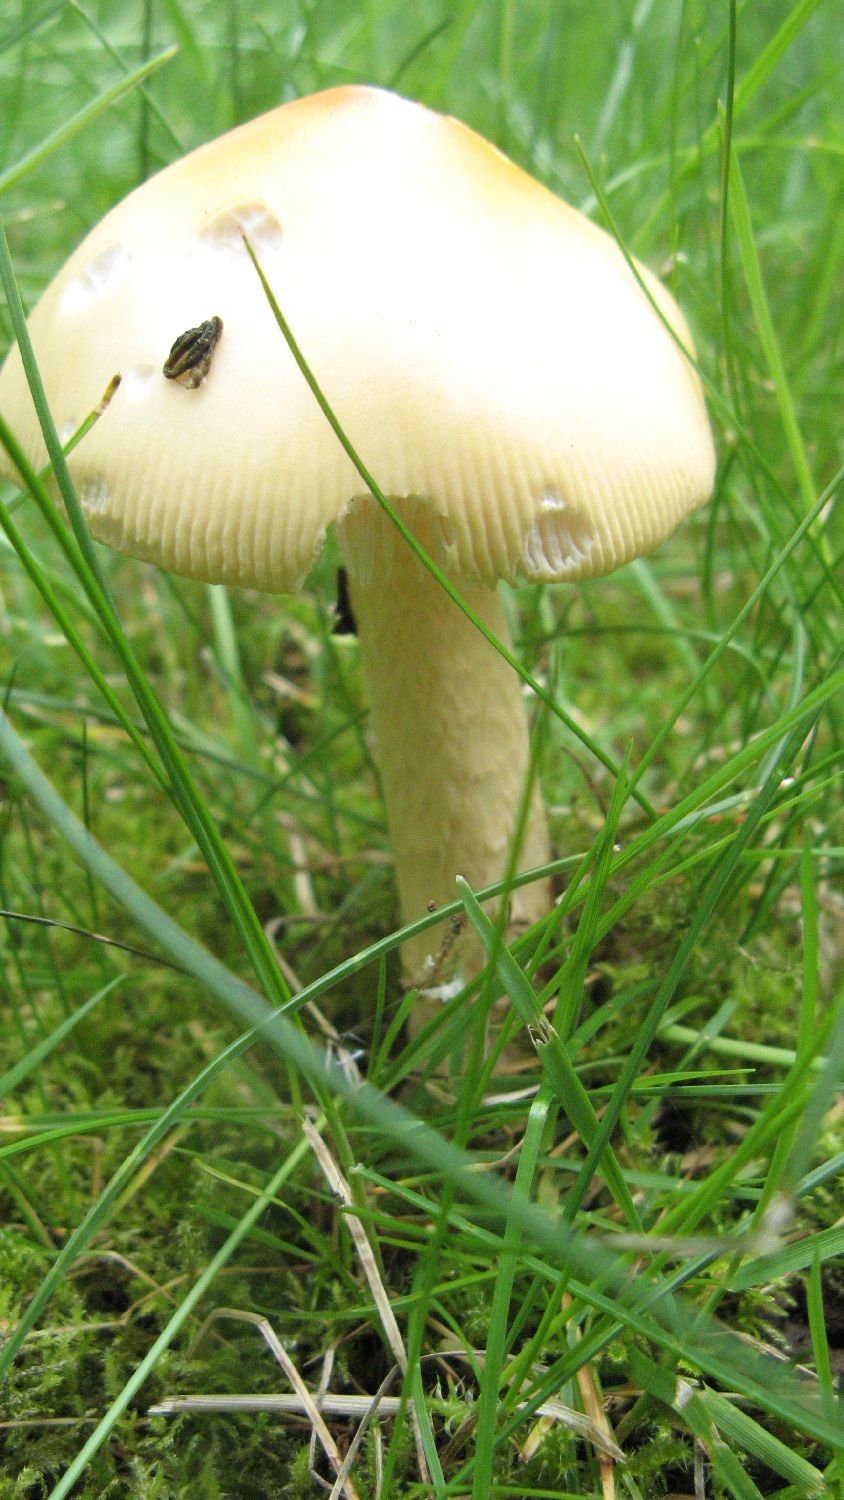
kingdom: Fungi
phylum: Basidiomycota
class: Agaricomycetes
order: Agaricales
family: Amanitaceae
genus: Amanita
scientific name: Amanita crocea
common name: gylden kam-fluesvamp
